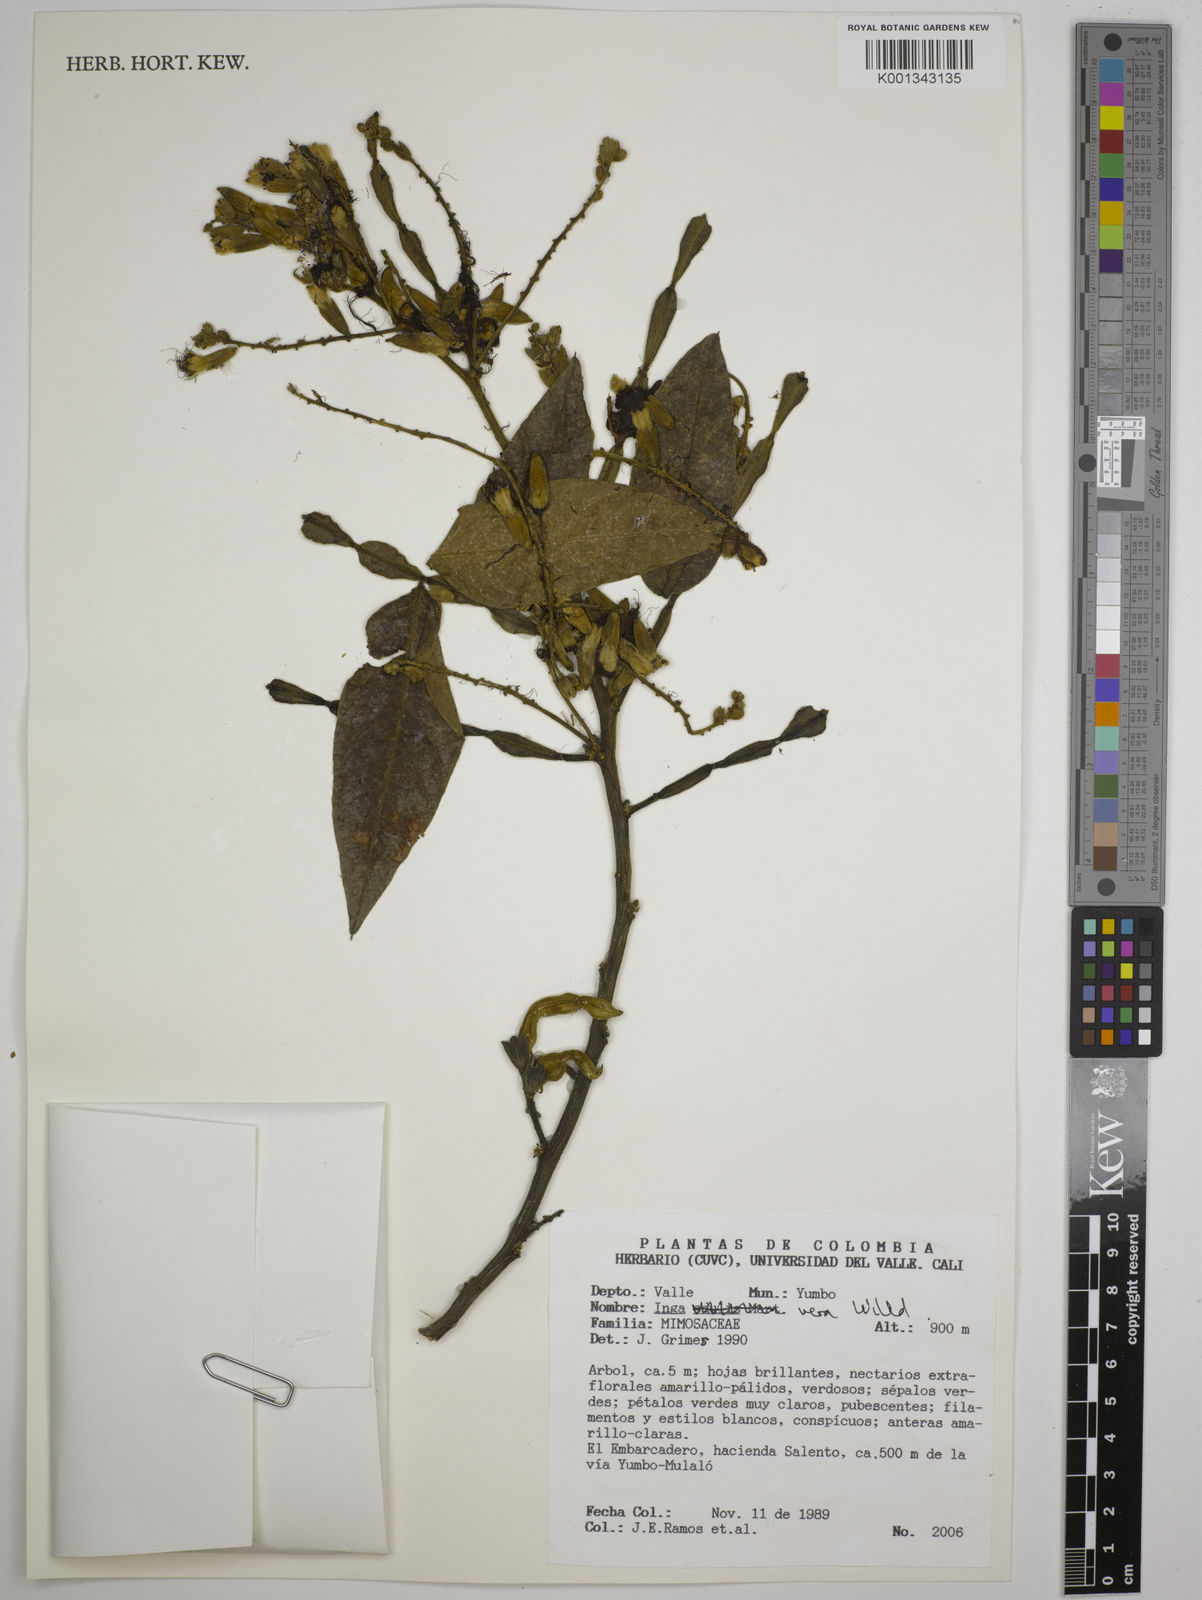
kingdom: Plantae
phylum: Tracheophyta
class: Magnoliopsida
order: Fabales
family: Fabaceae
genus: Inga
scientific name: Inga
